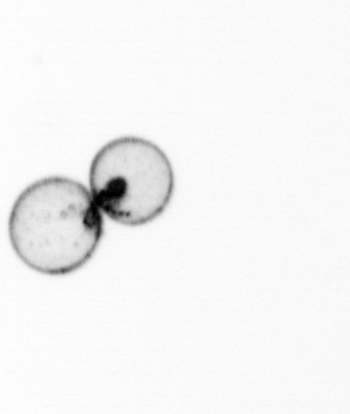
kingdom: Chromista
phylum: Myzozoa
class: Dinophyceae
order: Noctilucales
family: Noctilucaceae
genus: Noctiluca
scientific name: Noctiluca scintillans
